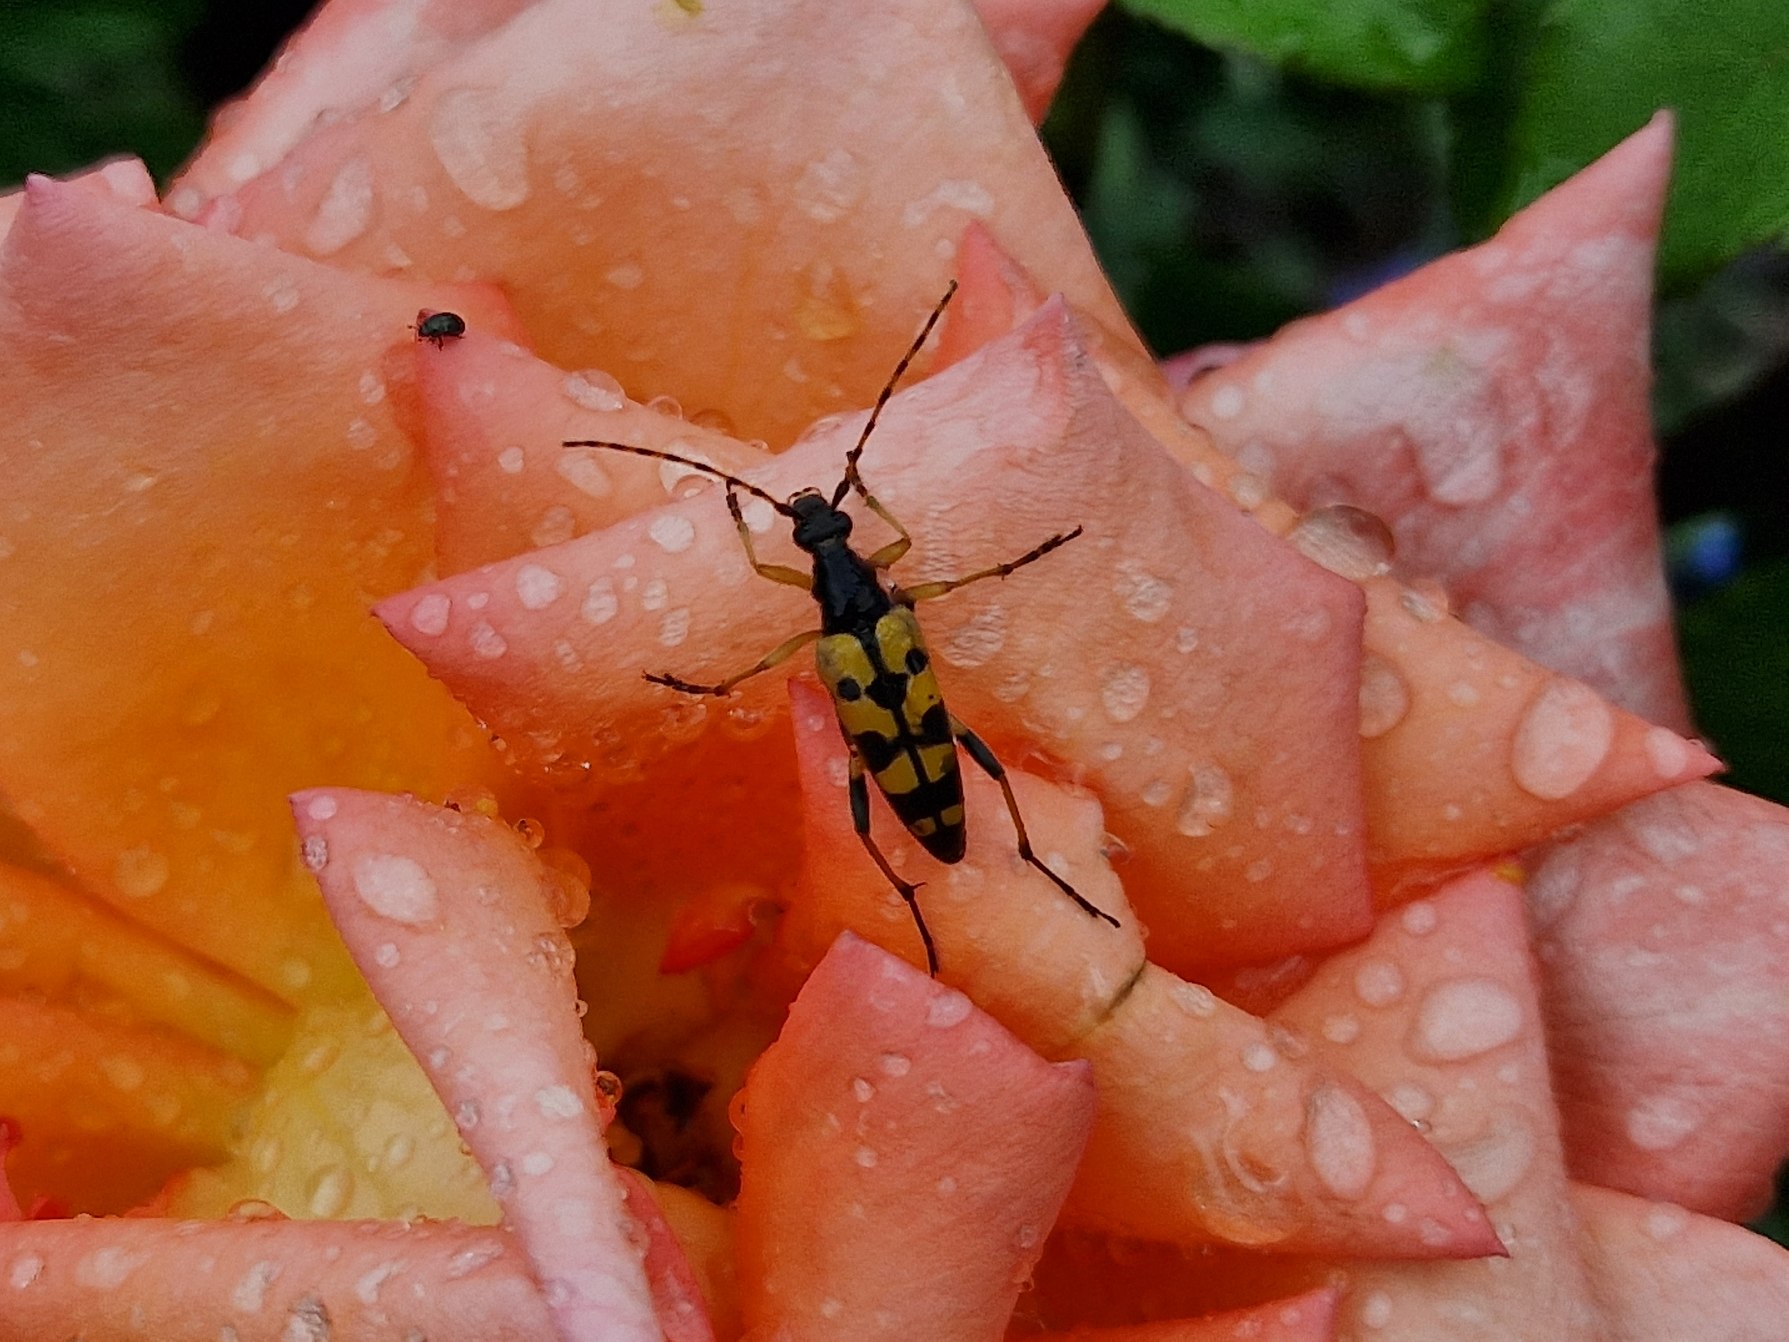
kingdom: Animalia
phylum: Arthropoda
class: Insecta
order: Coleoptera
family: Cerambycidae
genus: Rutpela
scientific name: Rutpela maculata
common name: Sydlig blomsterbuk
